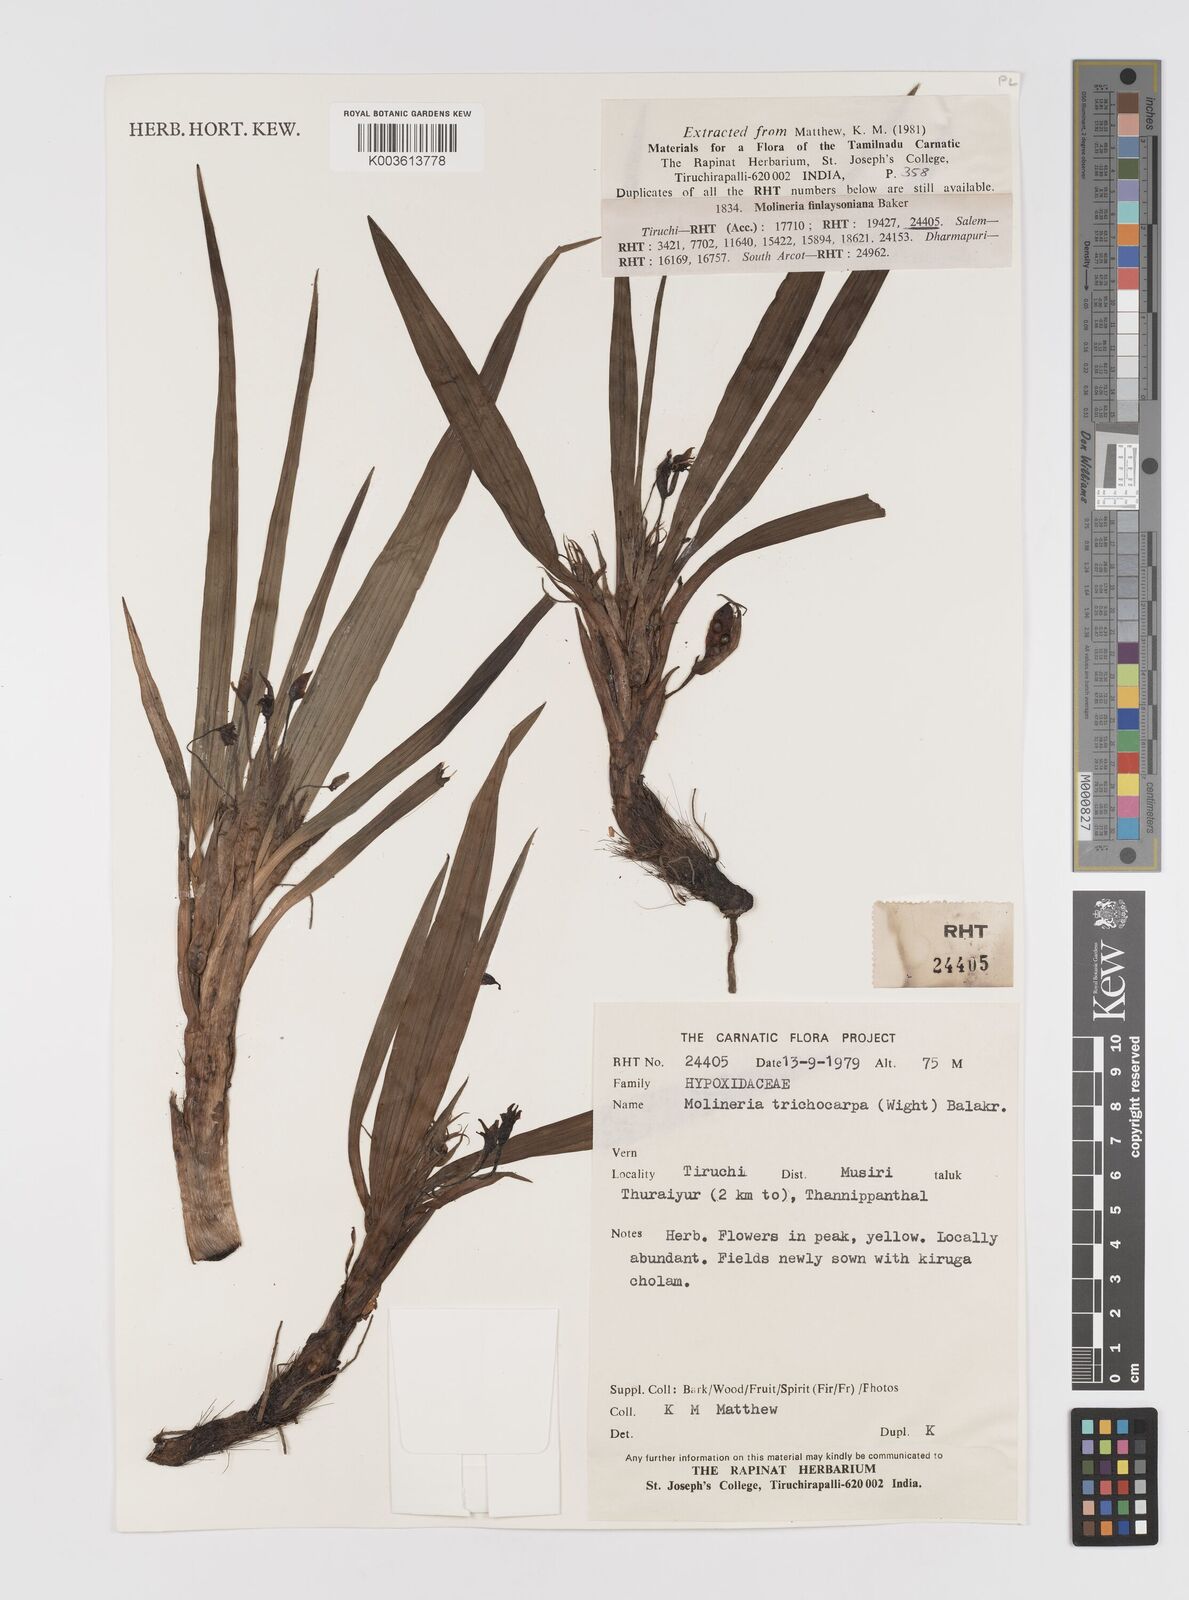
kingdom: Plantae
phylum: Tracheophyta
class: Liliopsida
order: Asparagales
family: Hypoxidaceae
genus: Curculigo
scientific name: Curculigo trichocarpa
